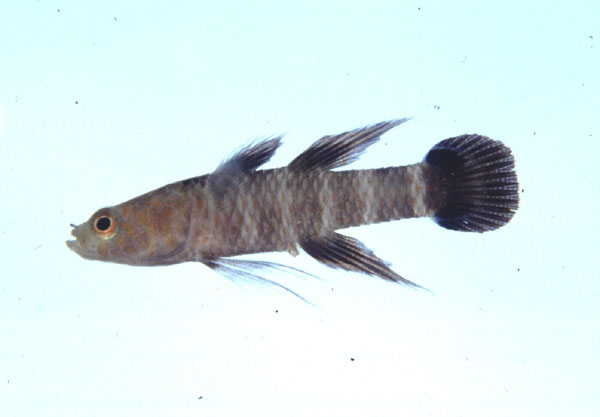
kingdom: Animalia
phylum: Chordata
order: Perciformes
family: Eleotridae
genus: Calumia
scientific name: Calumia godeffroyi
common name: Tailface sleeper
